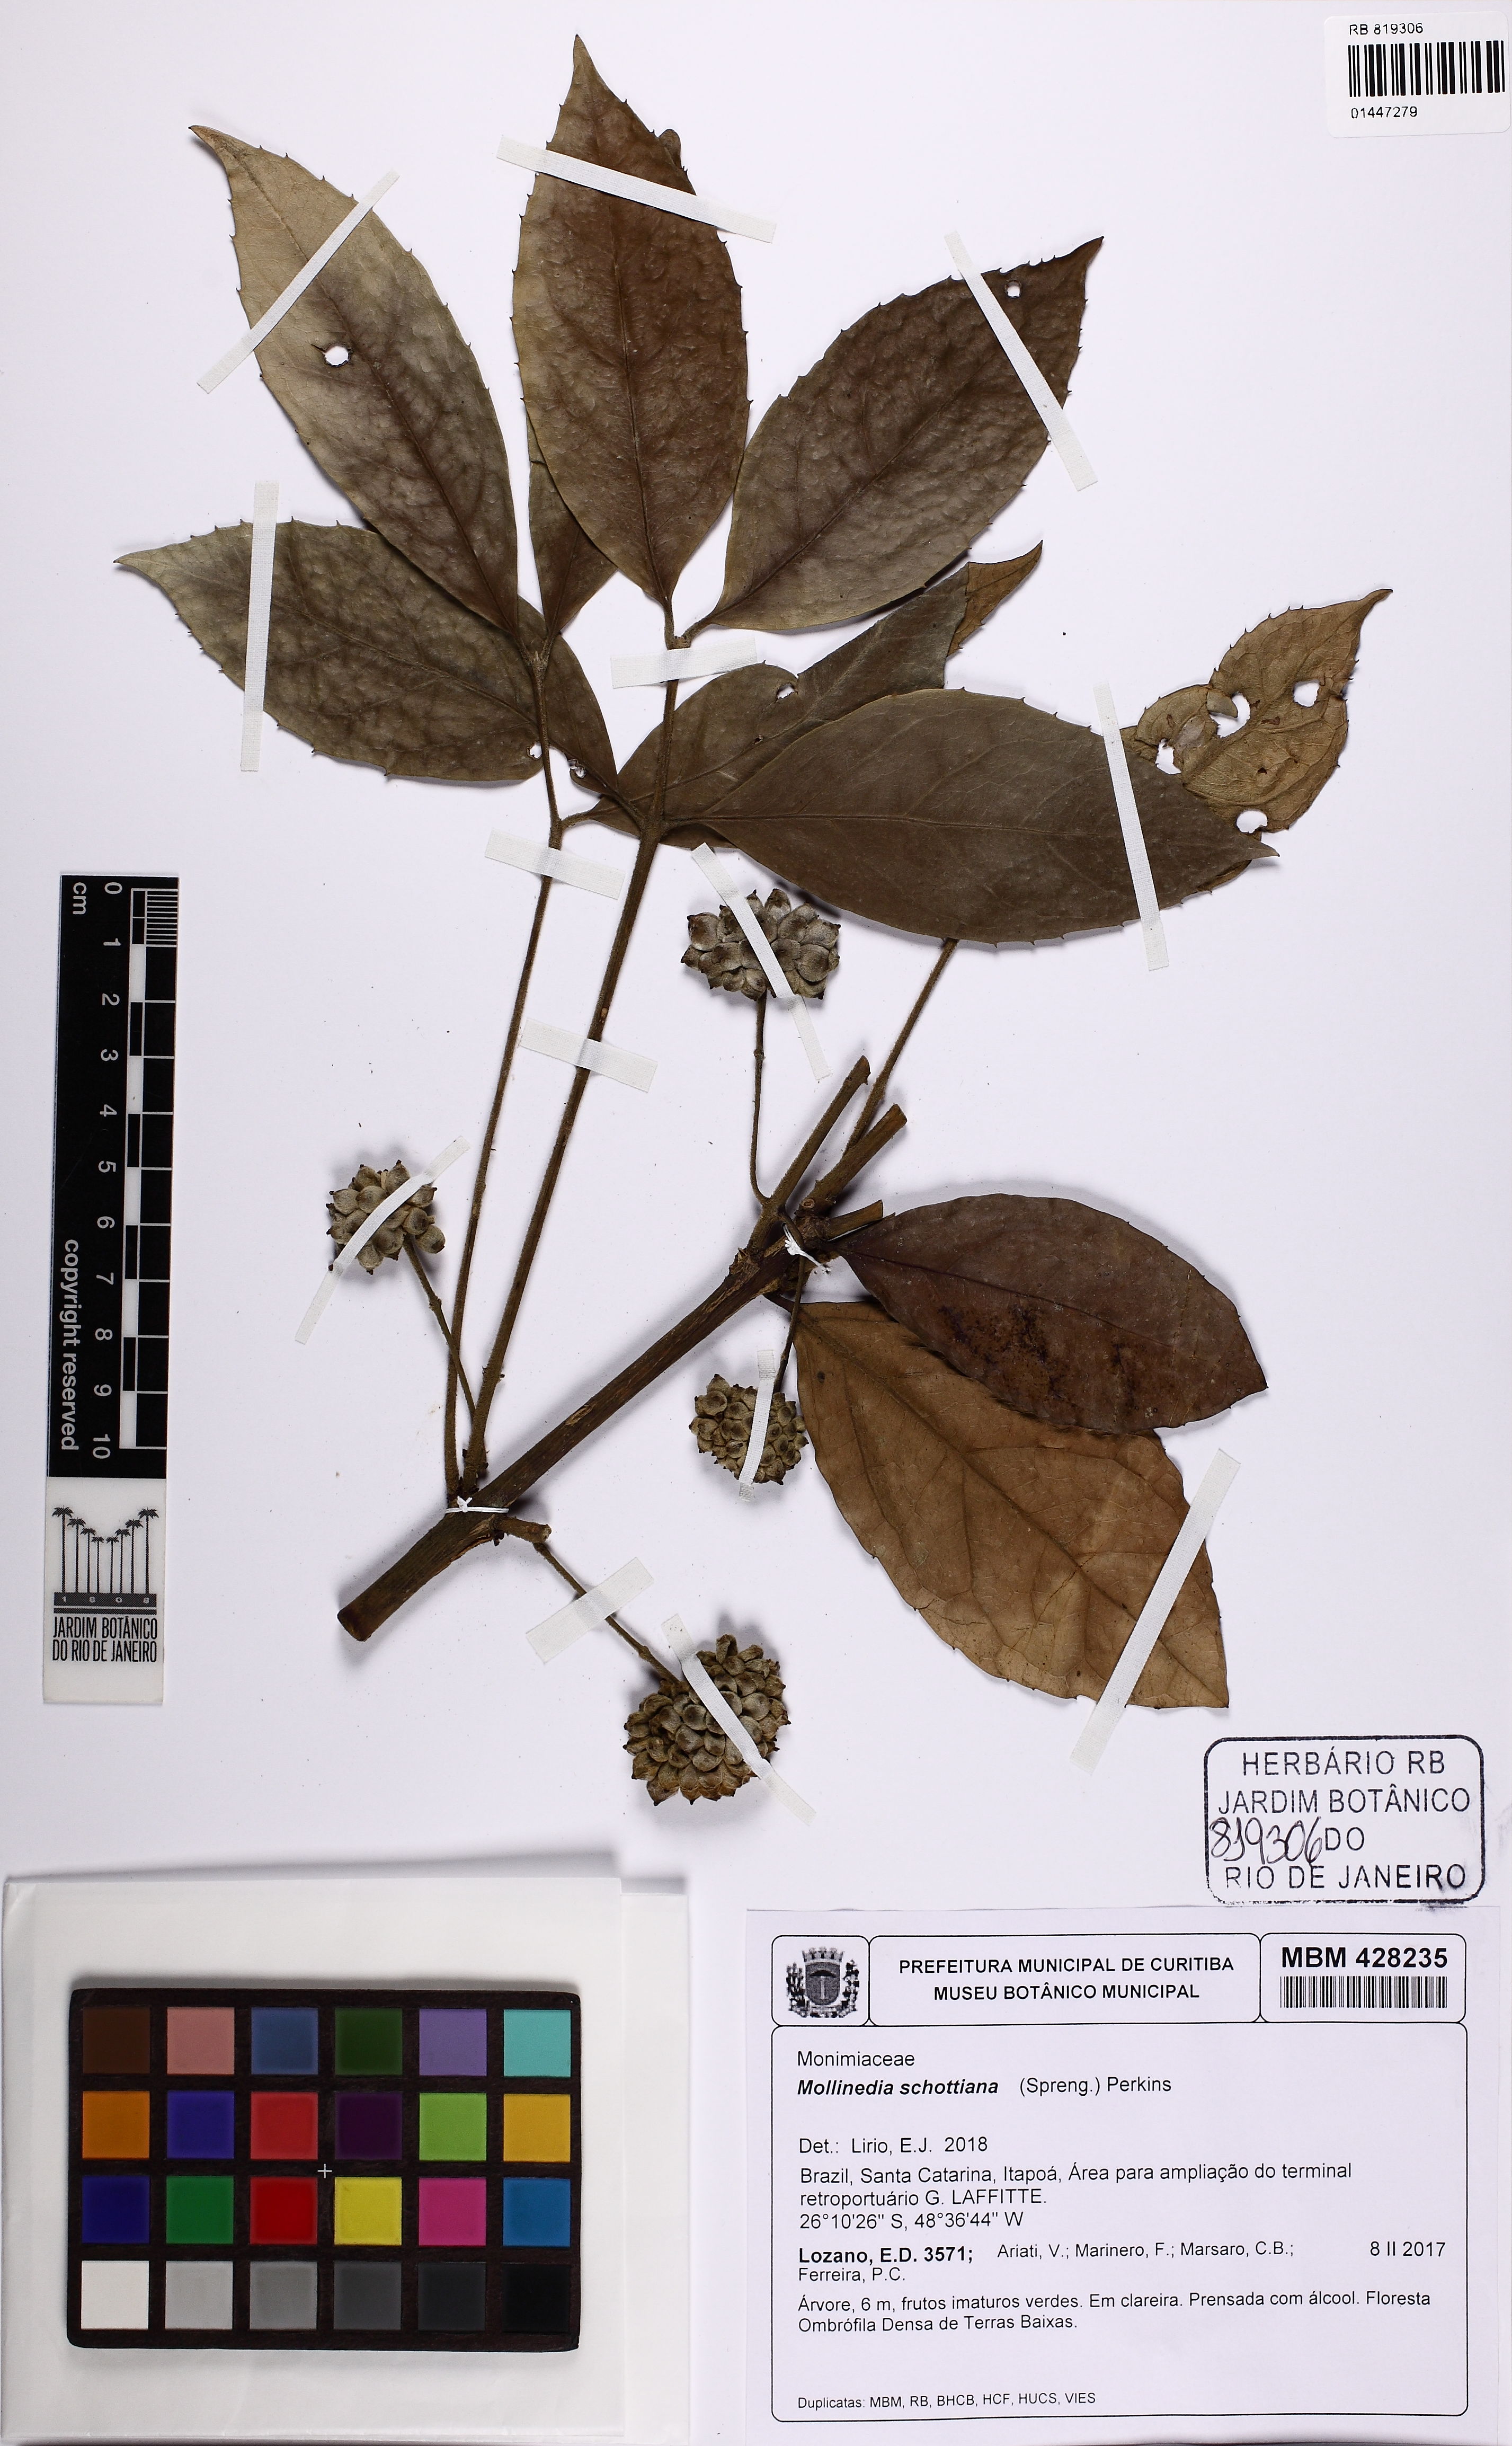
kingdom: Plantae
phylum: Tracheophyta
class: Magnoliopsida
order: Laurales
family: Monimiaceae
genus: Mollinedia
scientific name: Mollinedia umbellata
